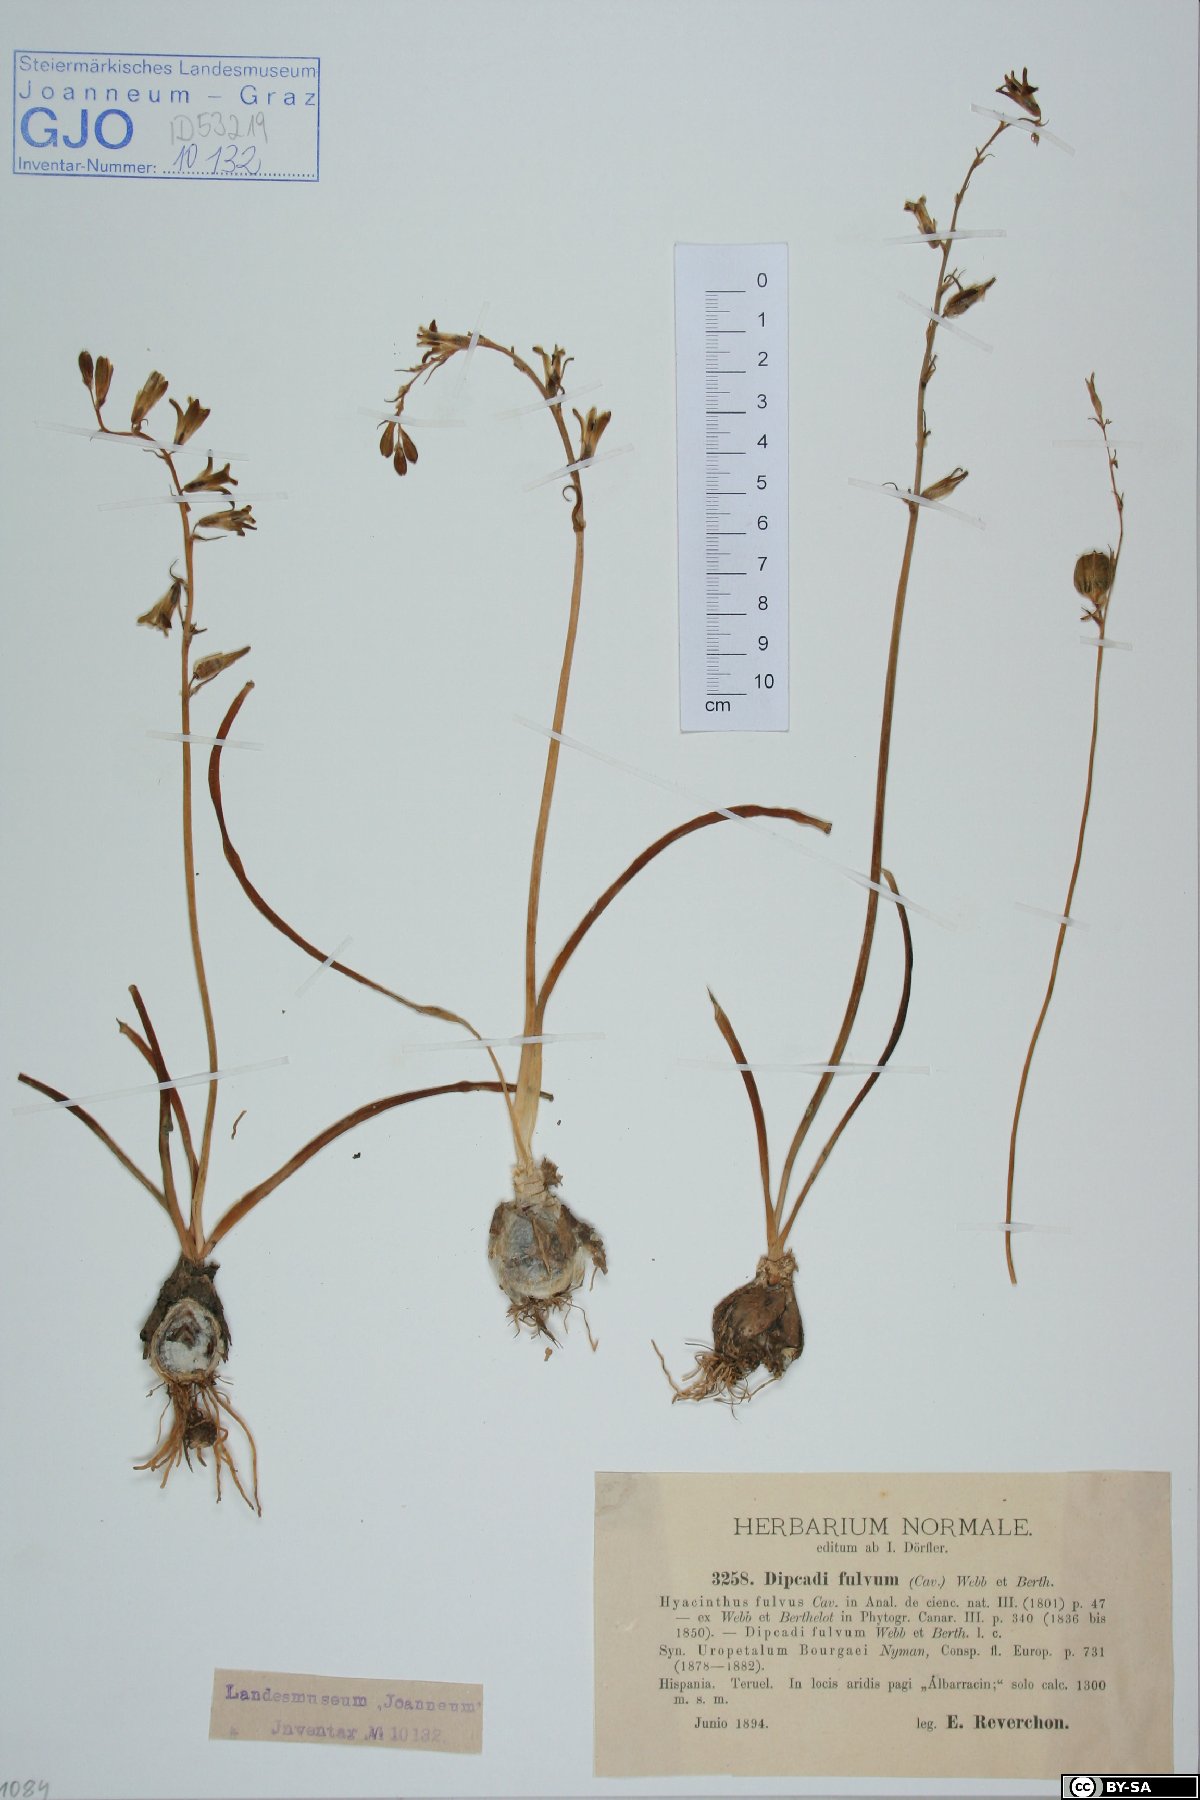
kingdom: Plantae
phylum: Tracheophyta
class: Liliopsida
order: Asparagales
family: Asparagaceae
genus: Dipcadi
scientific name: Dipcadi serotinum
